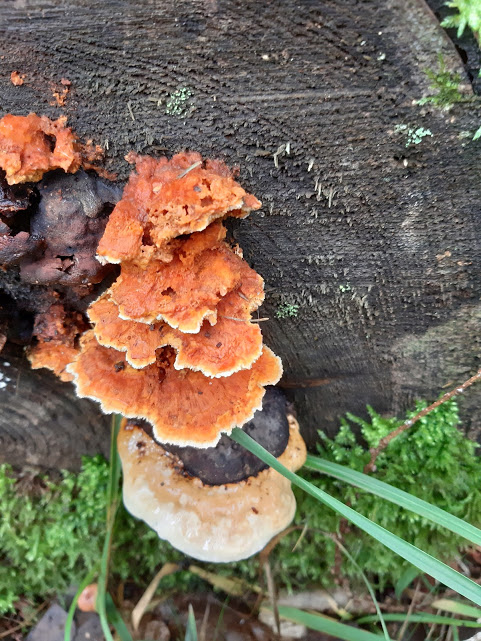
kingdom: Fungi
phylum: Basidiomycota
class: Agaricomycetes
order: Polyporales
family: Pycnoporellaceae
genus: Pycnoporellus
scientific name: Pycnoporellus fulgens
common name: flammeporesvamp
